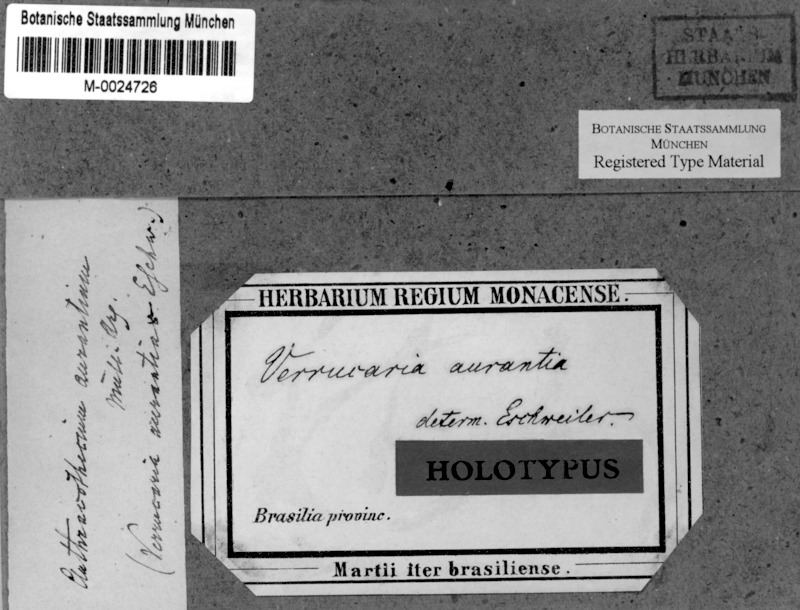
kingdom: Fungi
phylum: Ascomycota
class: Eurotiomycetes
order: Pyrenulales
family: Pyrenulaceae
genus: Anthracothecium
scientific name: Anthracothecium aurantiacum
